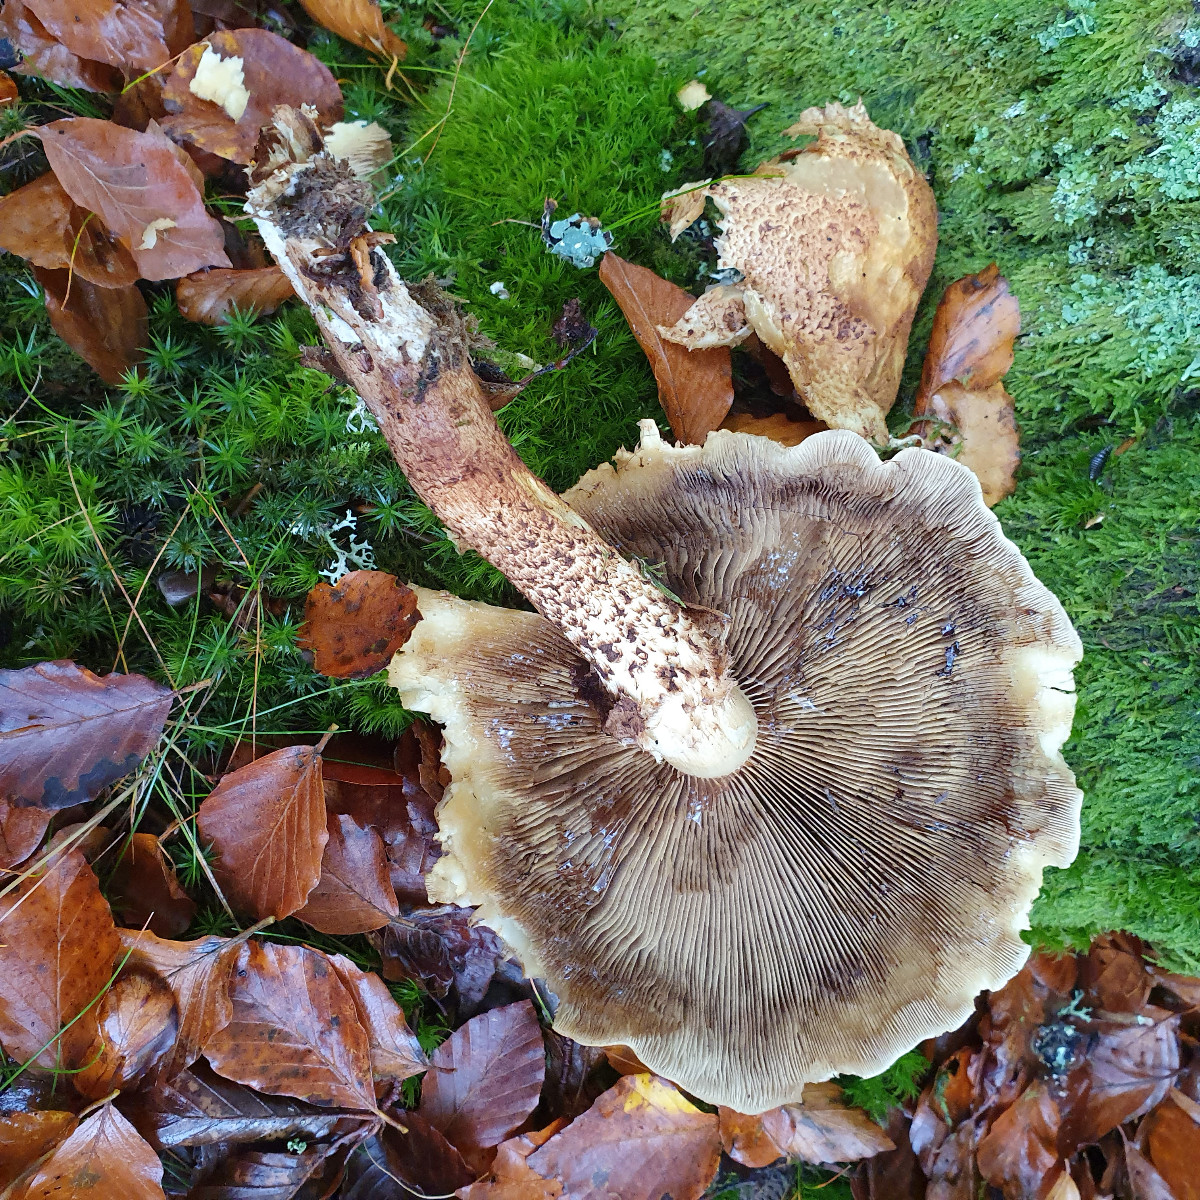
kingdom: Fungi
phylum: Basidiomycota
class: Agaricomycetes
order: Agaricales
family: Strophariaceae
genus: Pholiota
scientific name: Pholiota squarrosa
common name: krumskællet skælhat
